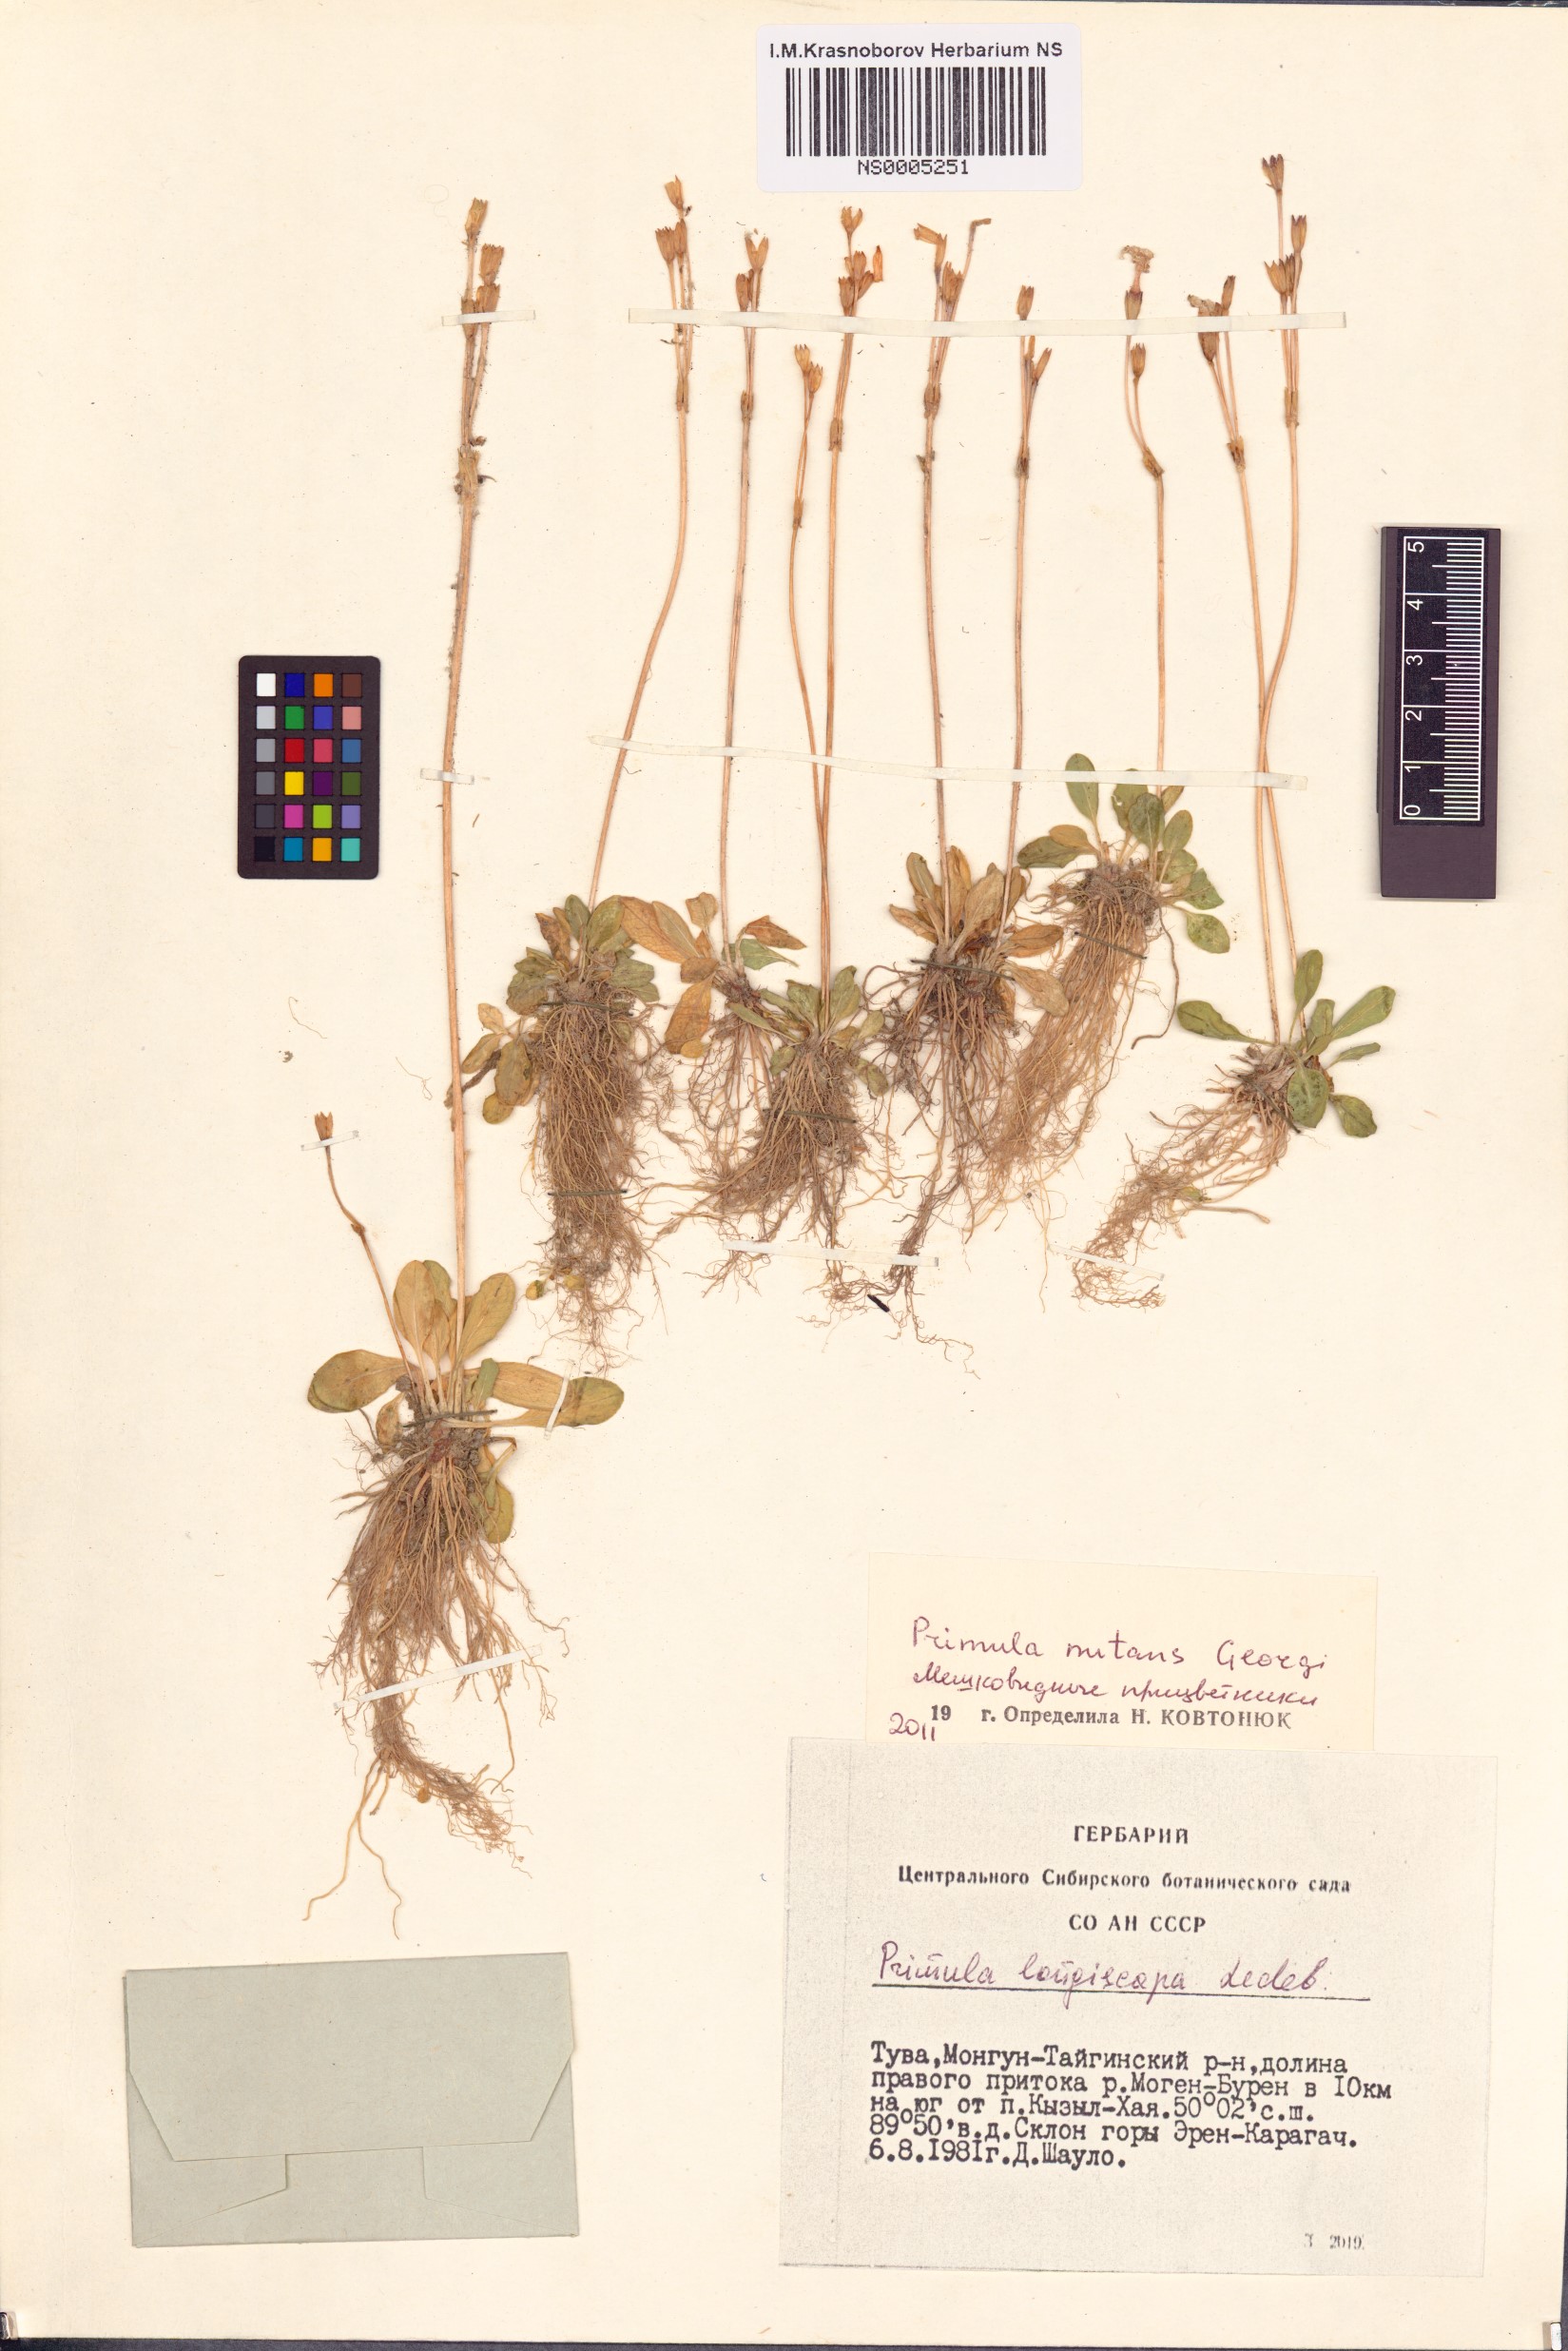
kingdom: Plantae
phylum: Tracheophyta
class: Magnoliopsida
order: Ericales
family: Primulaceae
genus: Primula
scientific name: Primula nutans
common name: Siberian primrose
